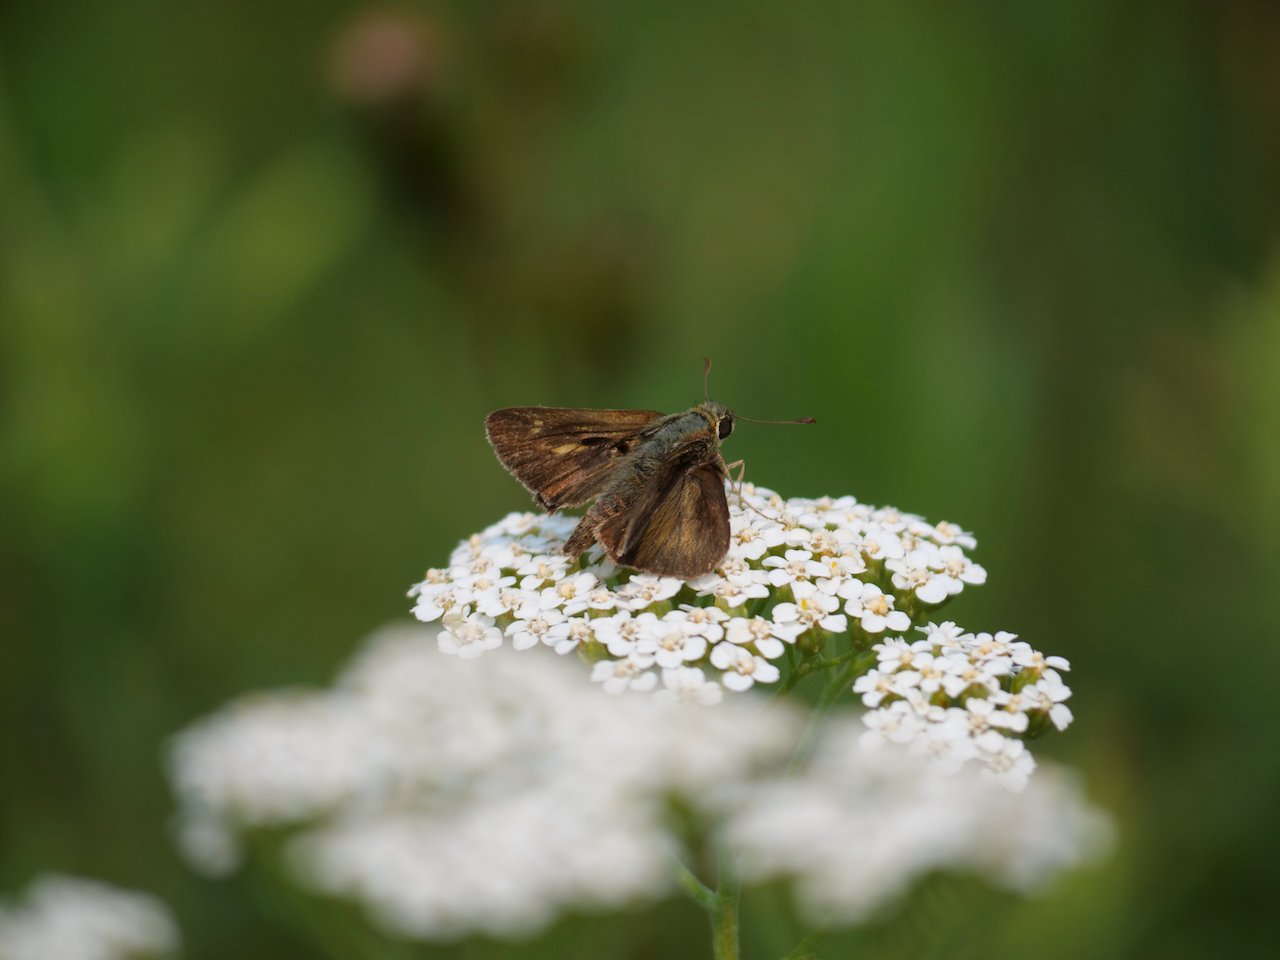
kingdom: Animalia
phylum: Arthropoda
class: Insecta
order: Lepidoptera
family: Hesperiidae
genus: Polites
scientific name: Polites egeremet
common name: Northern Broken-Dash
